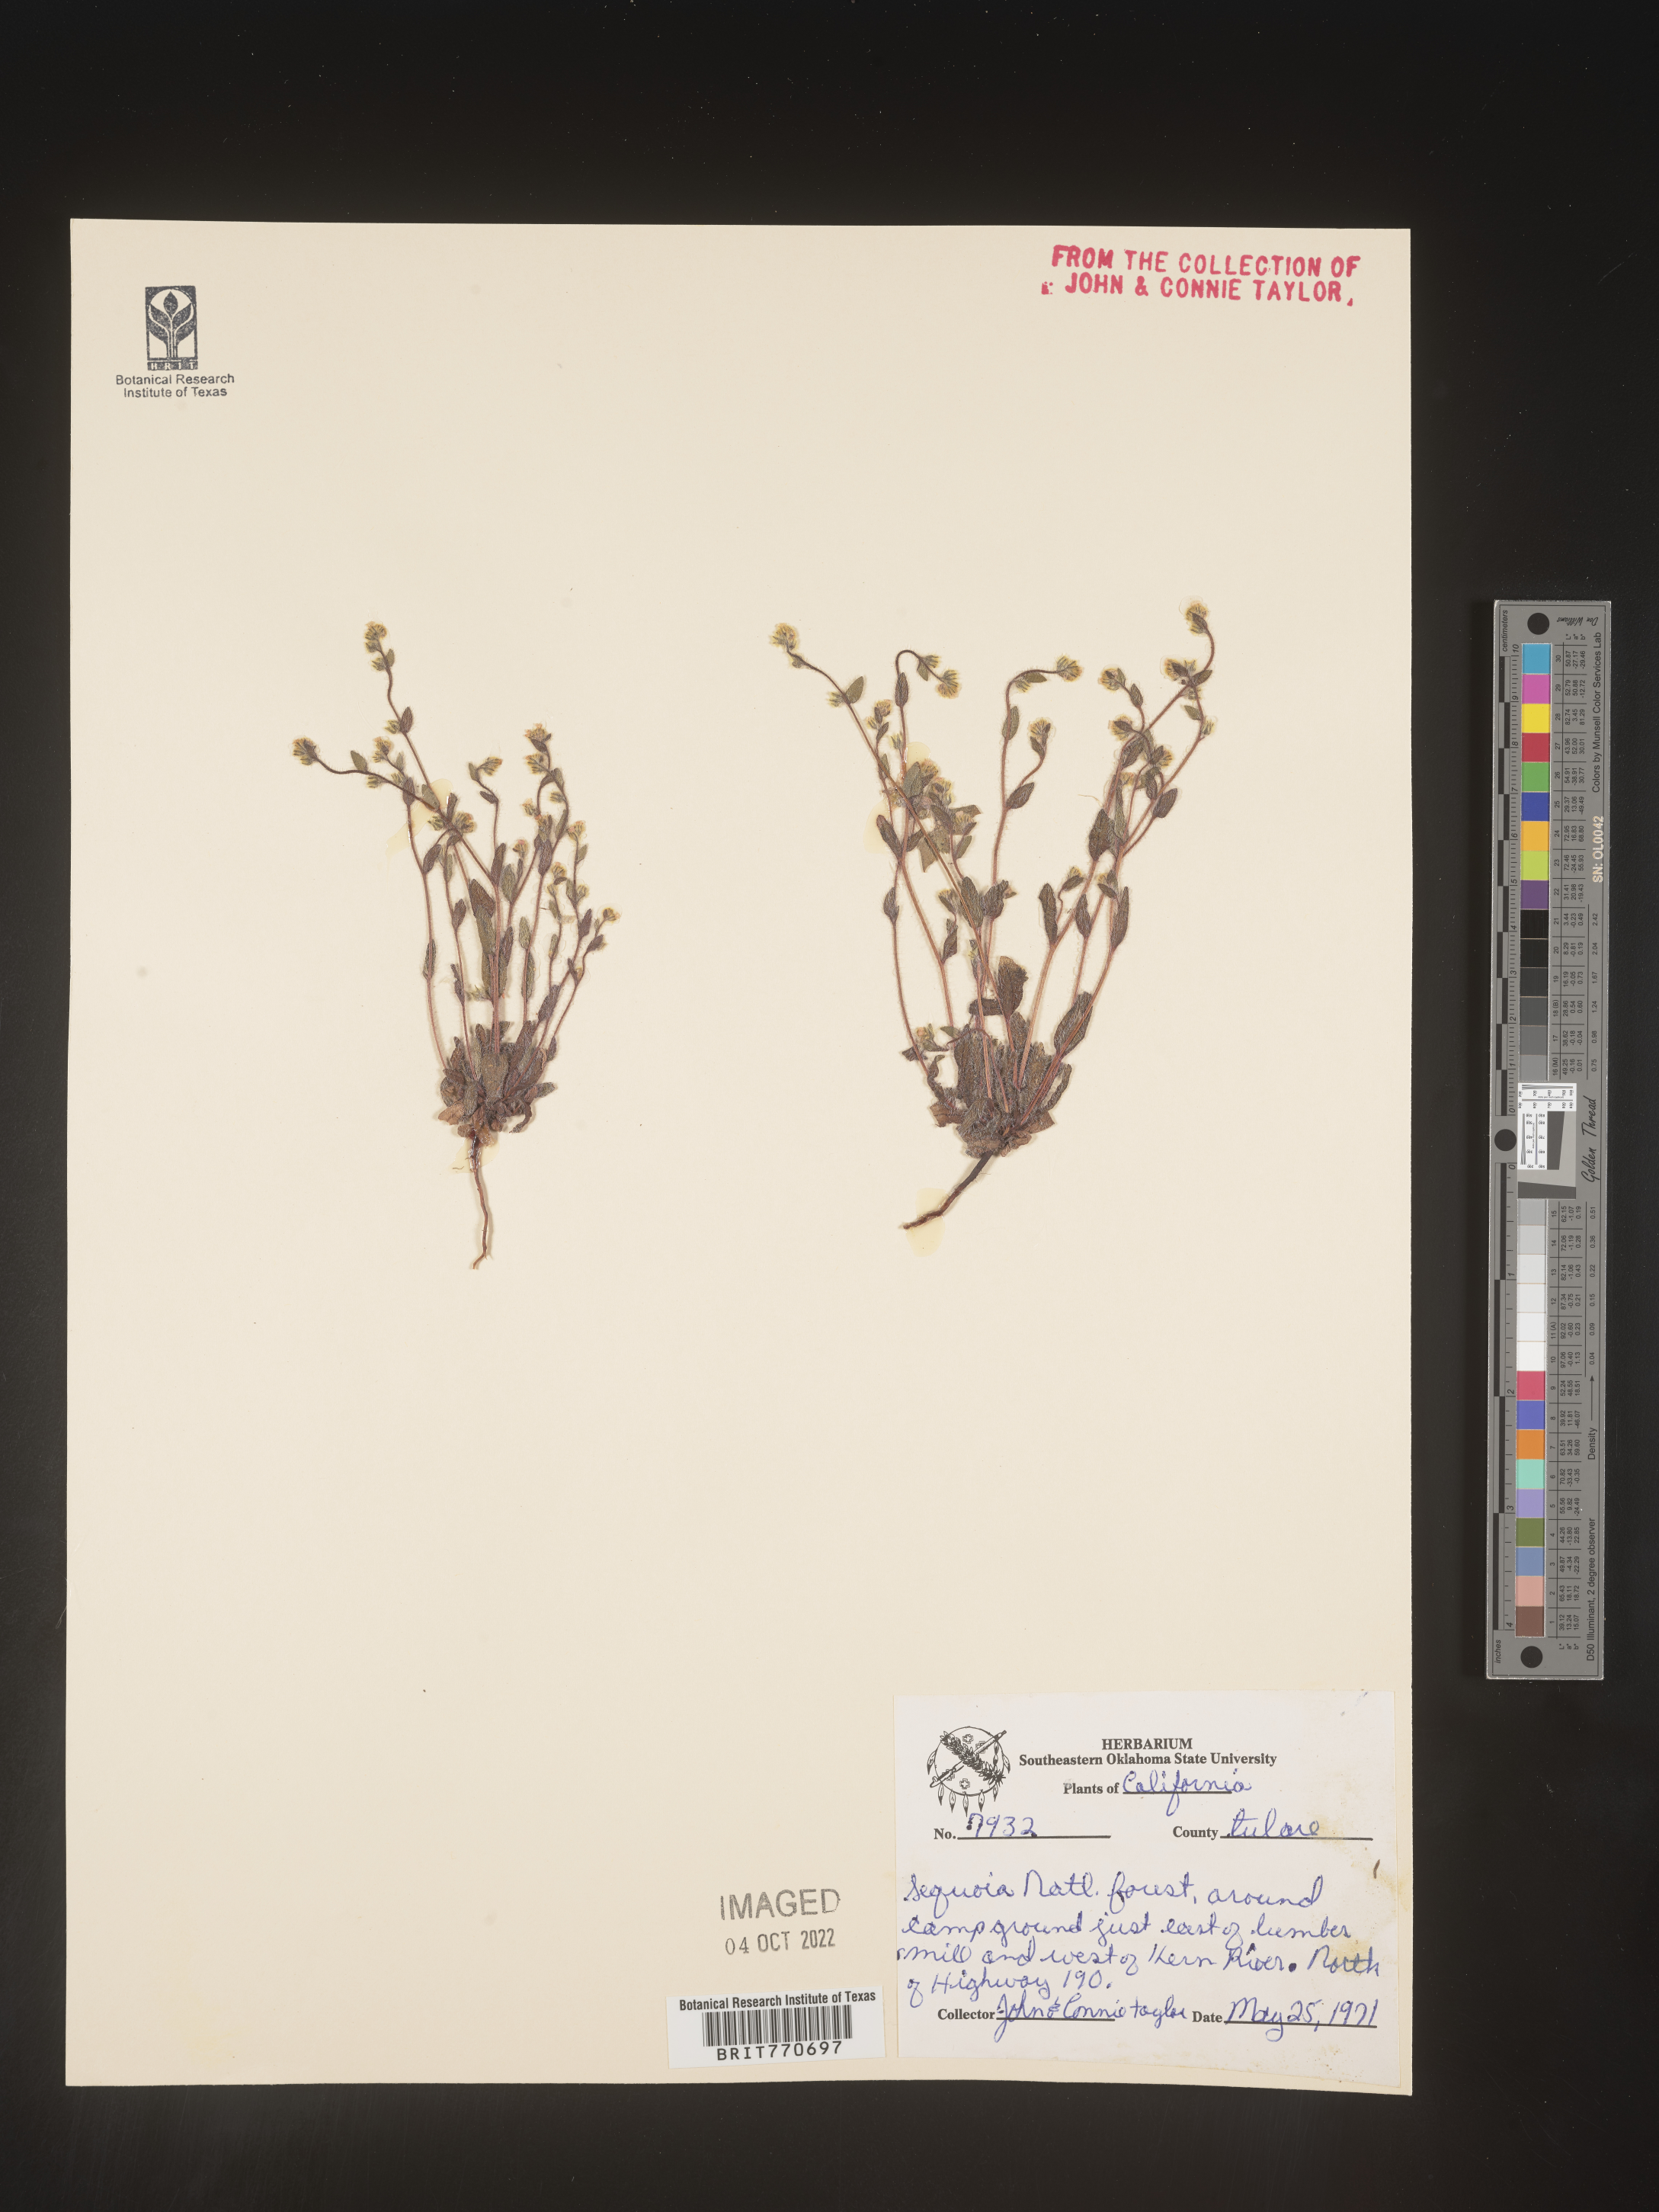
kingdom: Plantae
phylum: Tracheophyta
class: Magnoliopsida
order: Boraginales
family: Boraginaceae
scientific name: Boraginaceae
